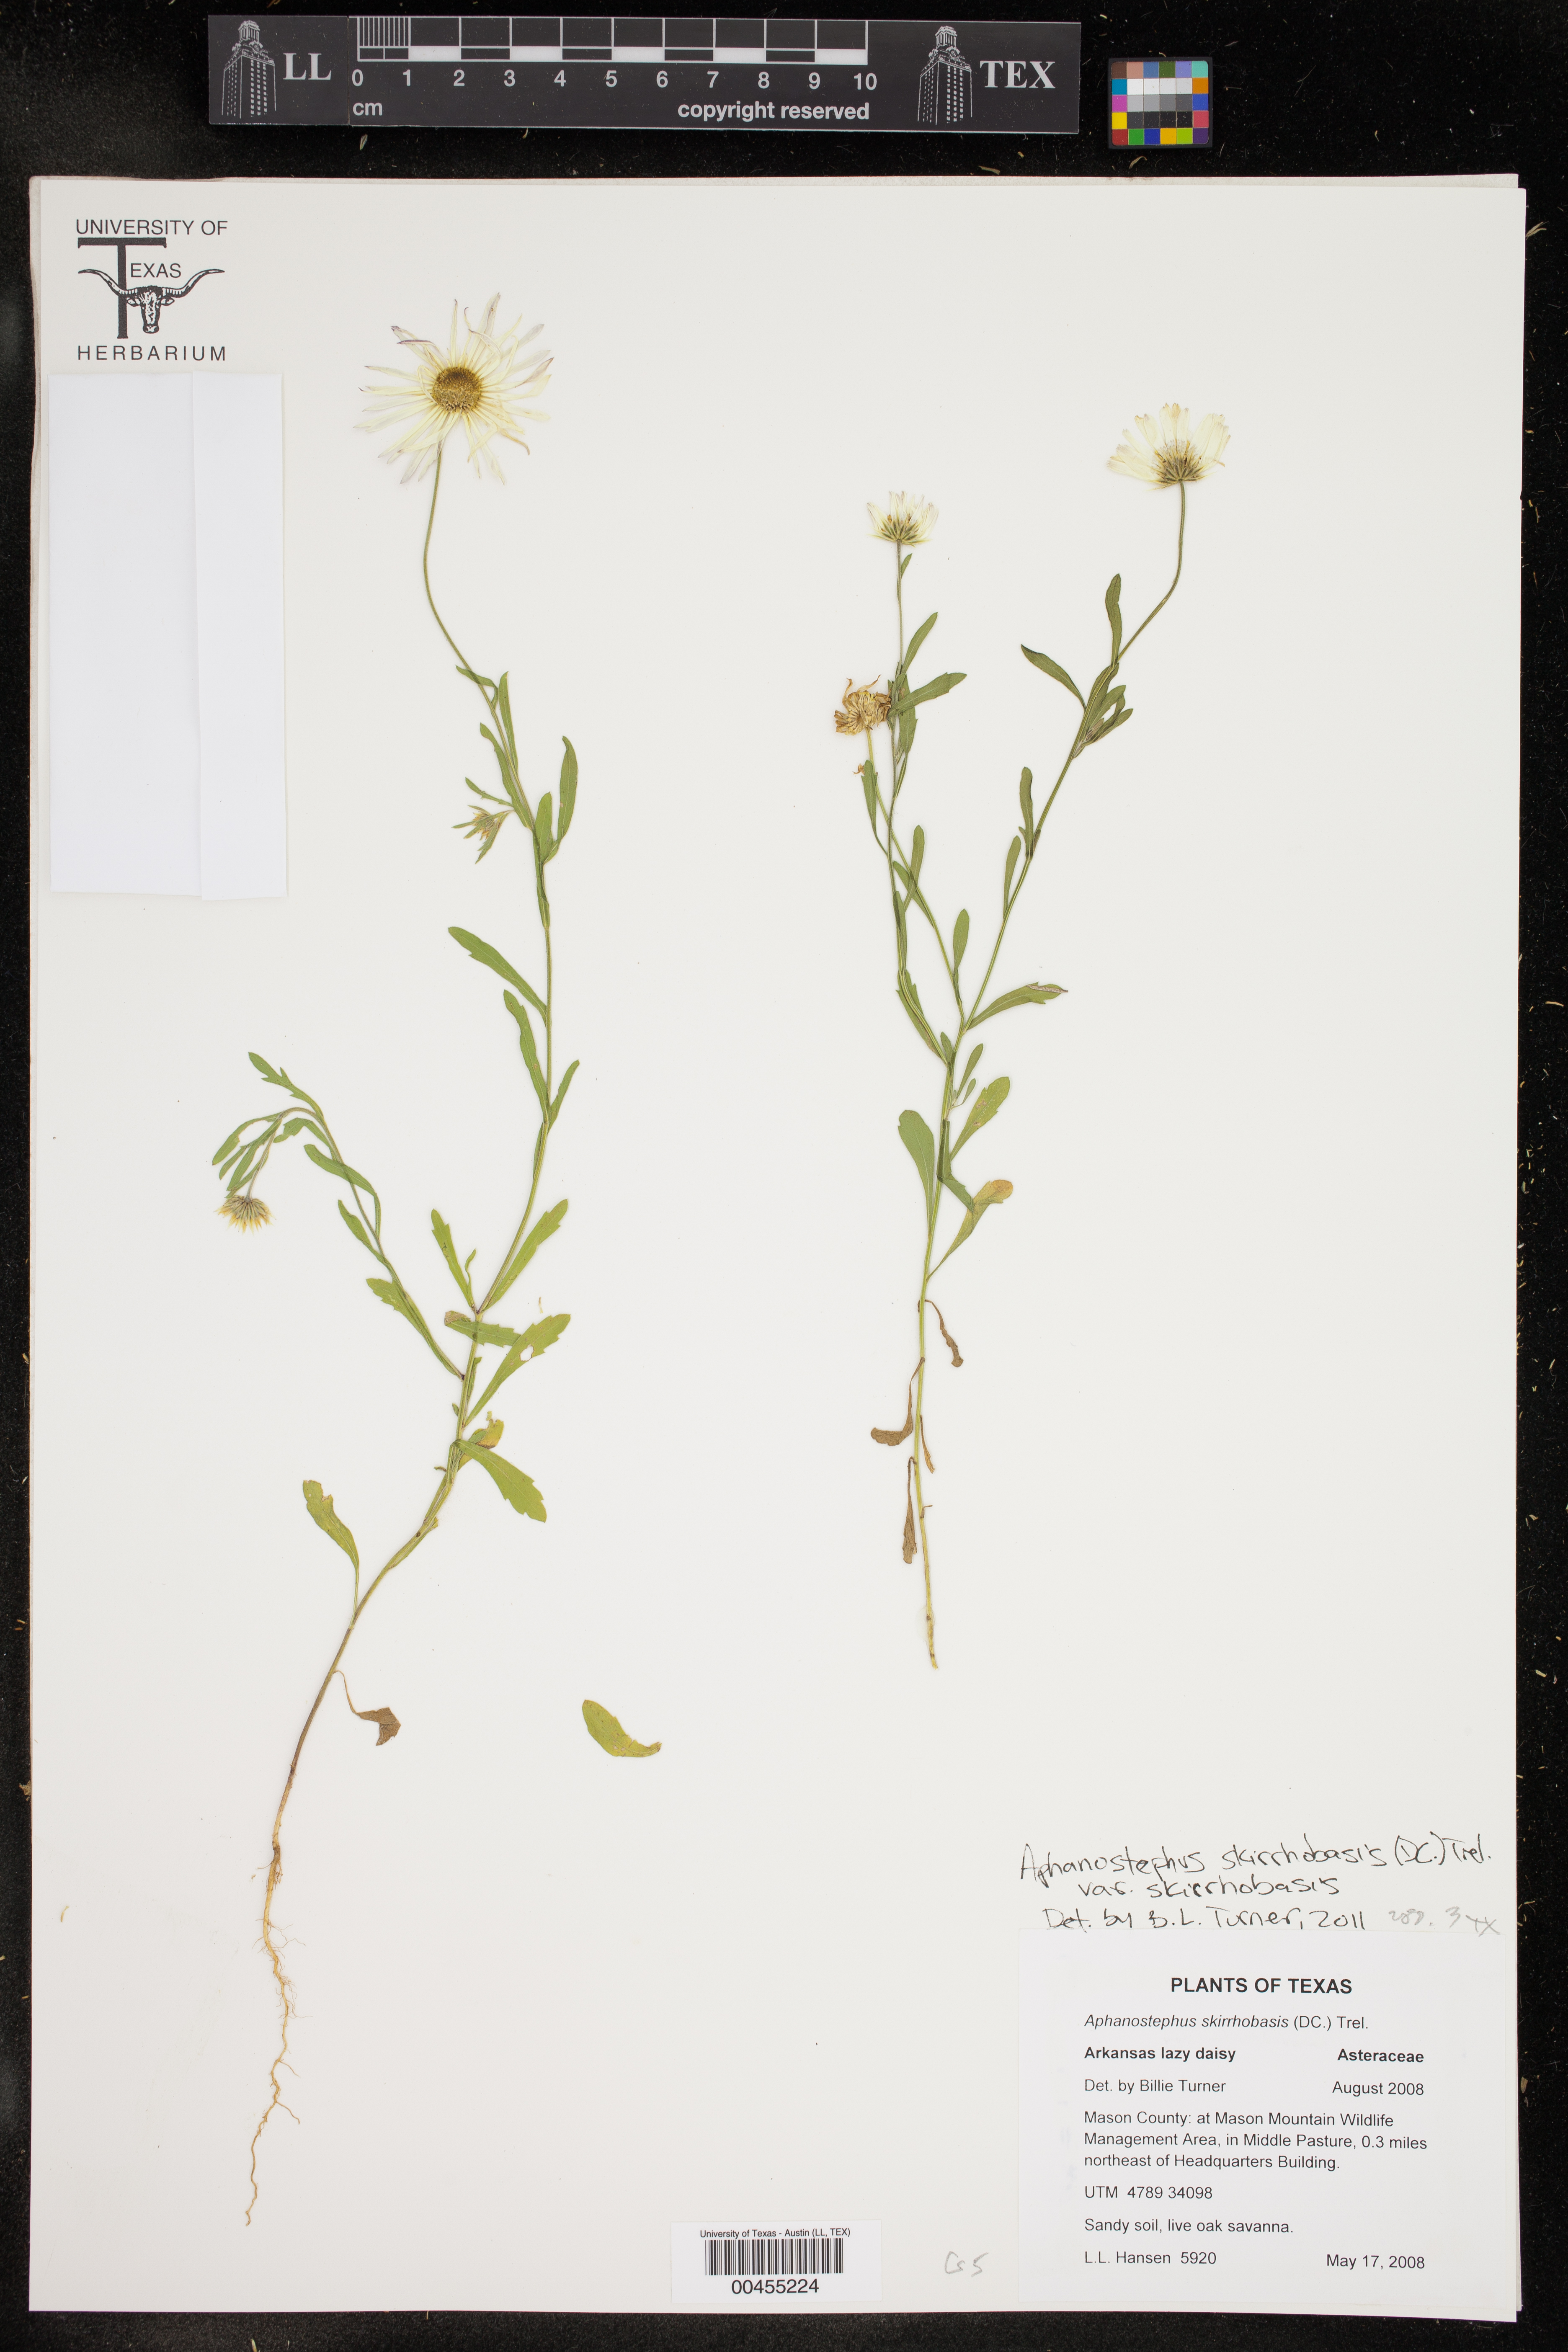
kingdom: Plantae
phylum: Tracheophyta
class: Magnoliopsida
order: Asterales
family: Asteraceae
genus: Aphanostephus
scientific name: Aphanostephus skirrhobasis
